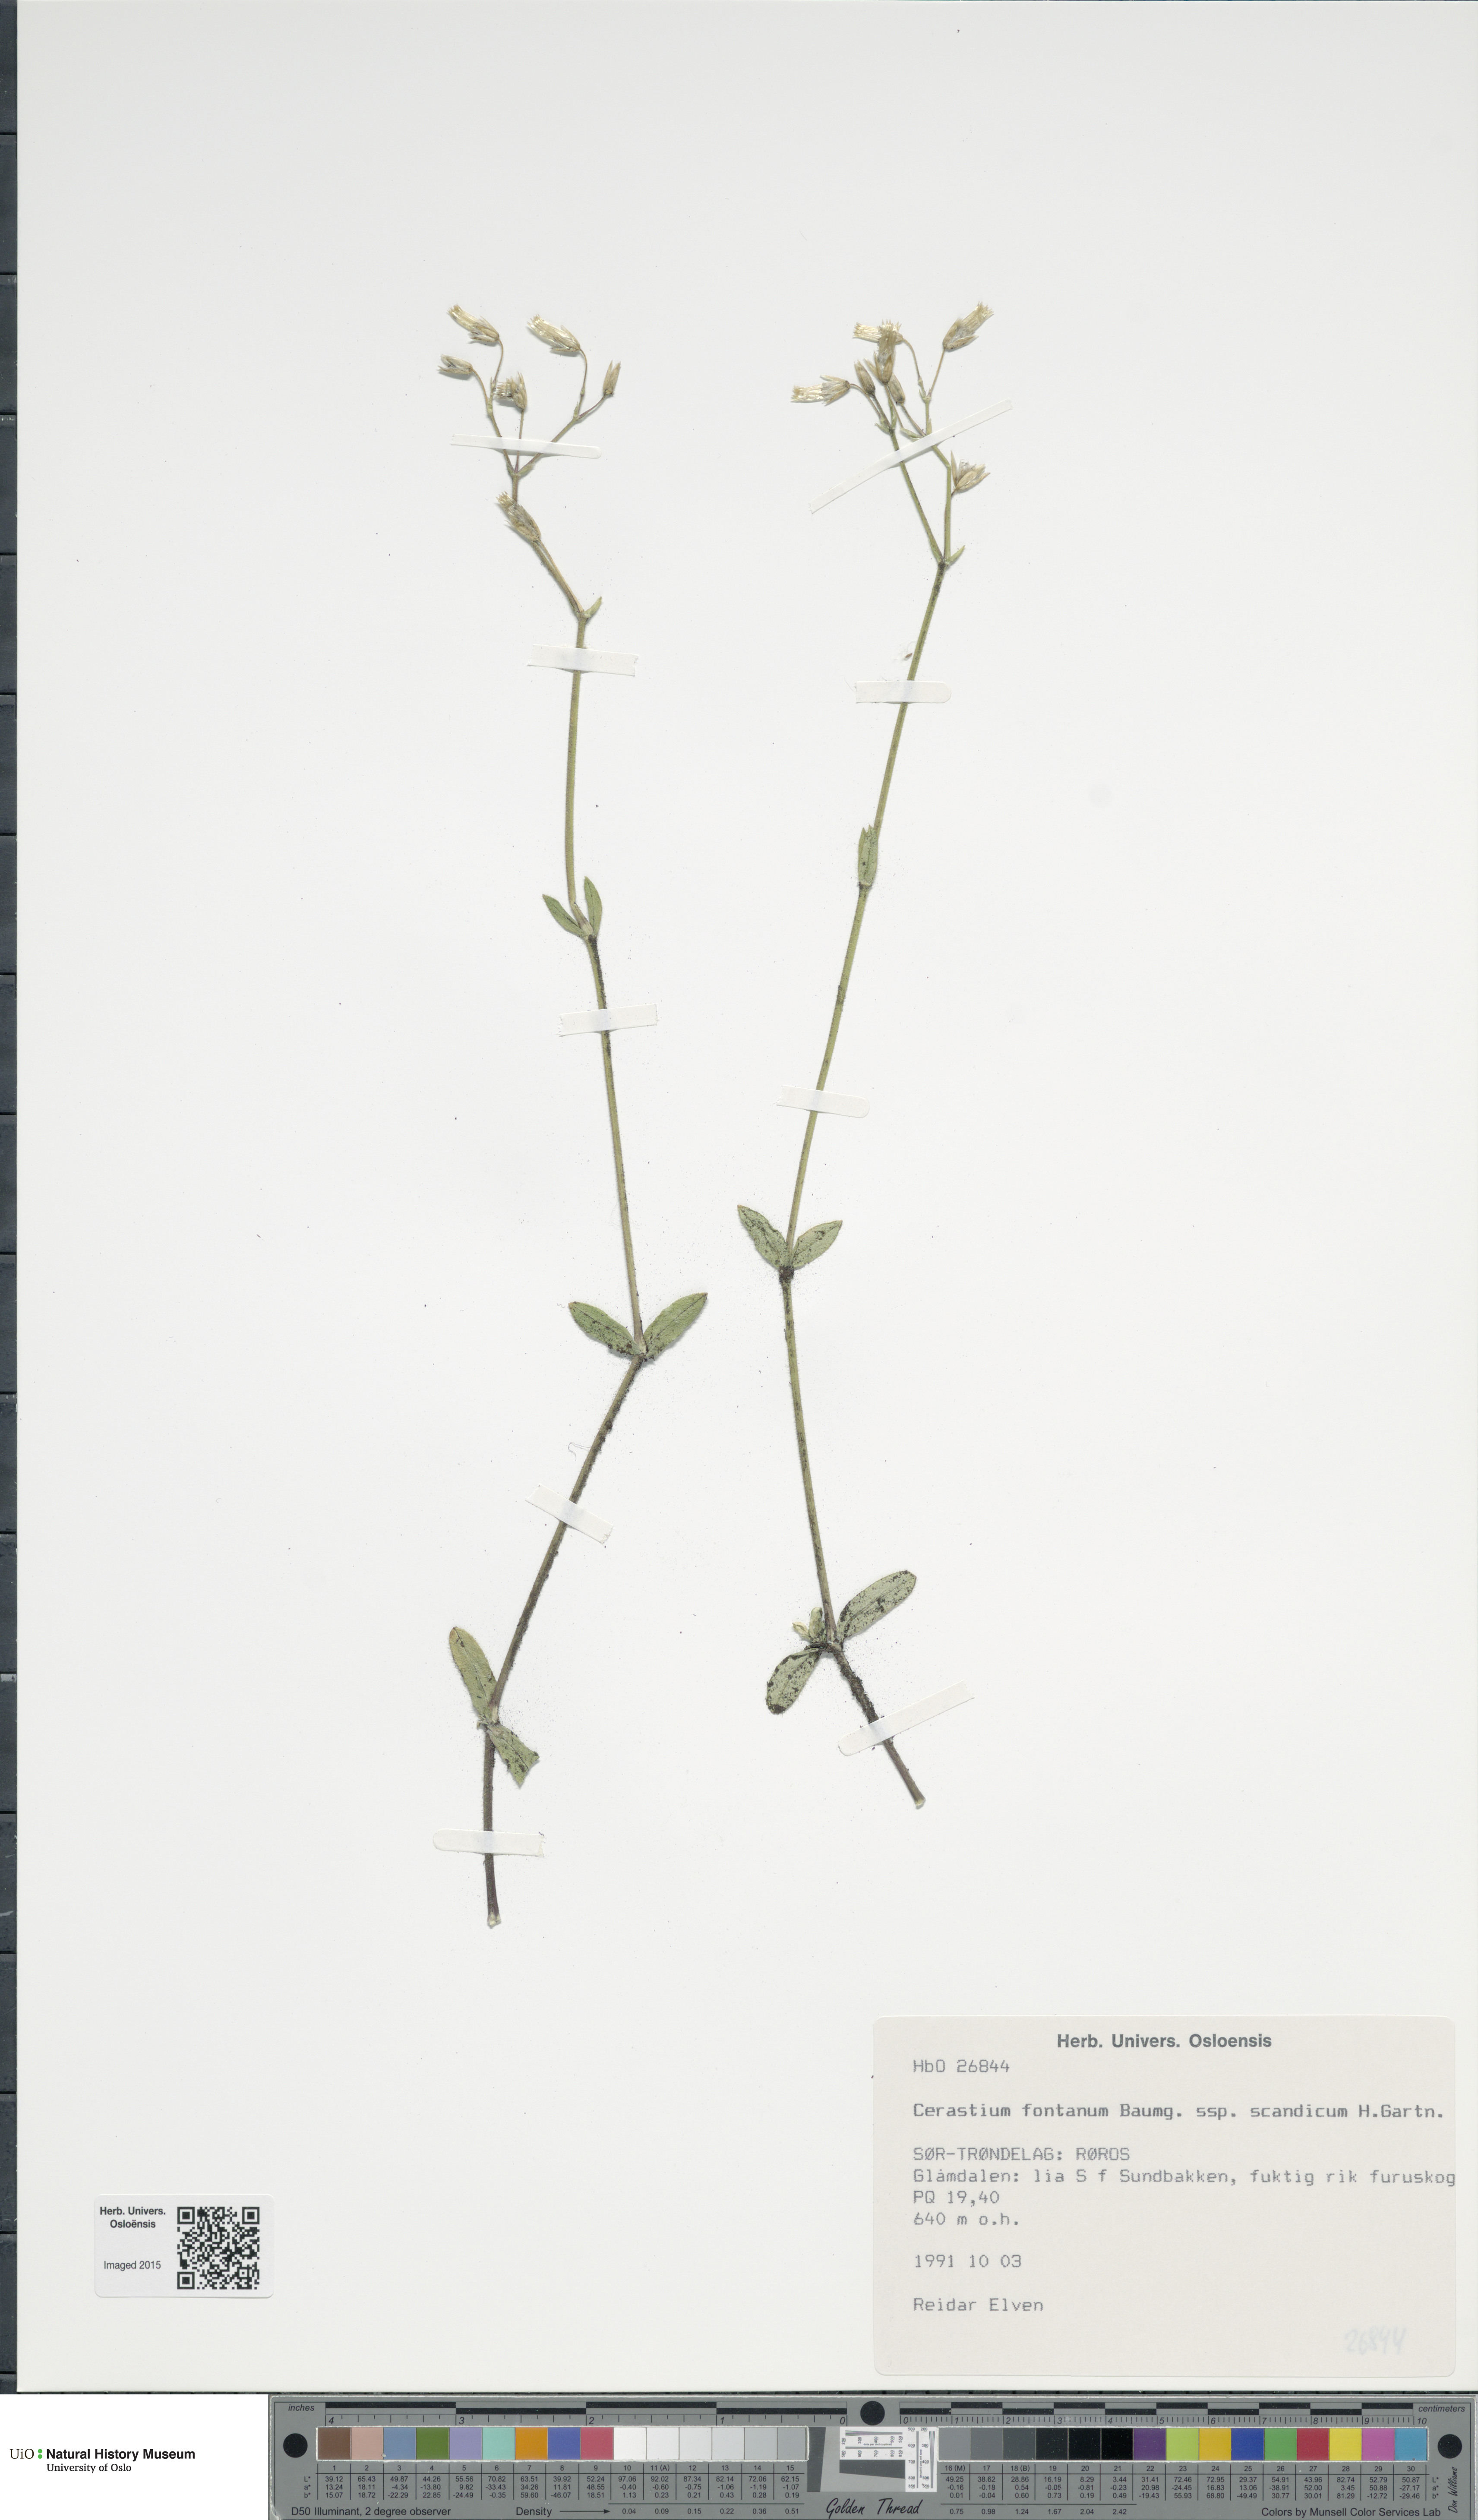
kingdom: Plantae
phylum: Tracheophyta
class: Magnoliopsida
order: Caryophyllales
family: Caryophyllaceae
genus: Cerastium
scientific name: Cerastium fontanum
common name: Common mouse-ear
